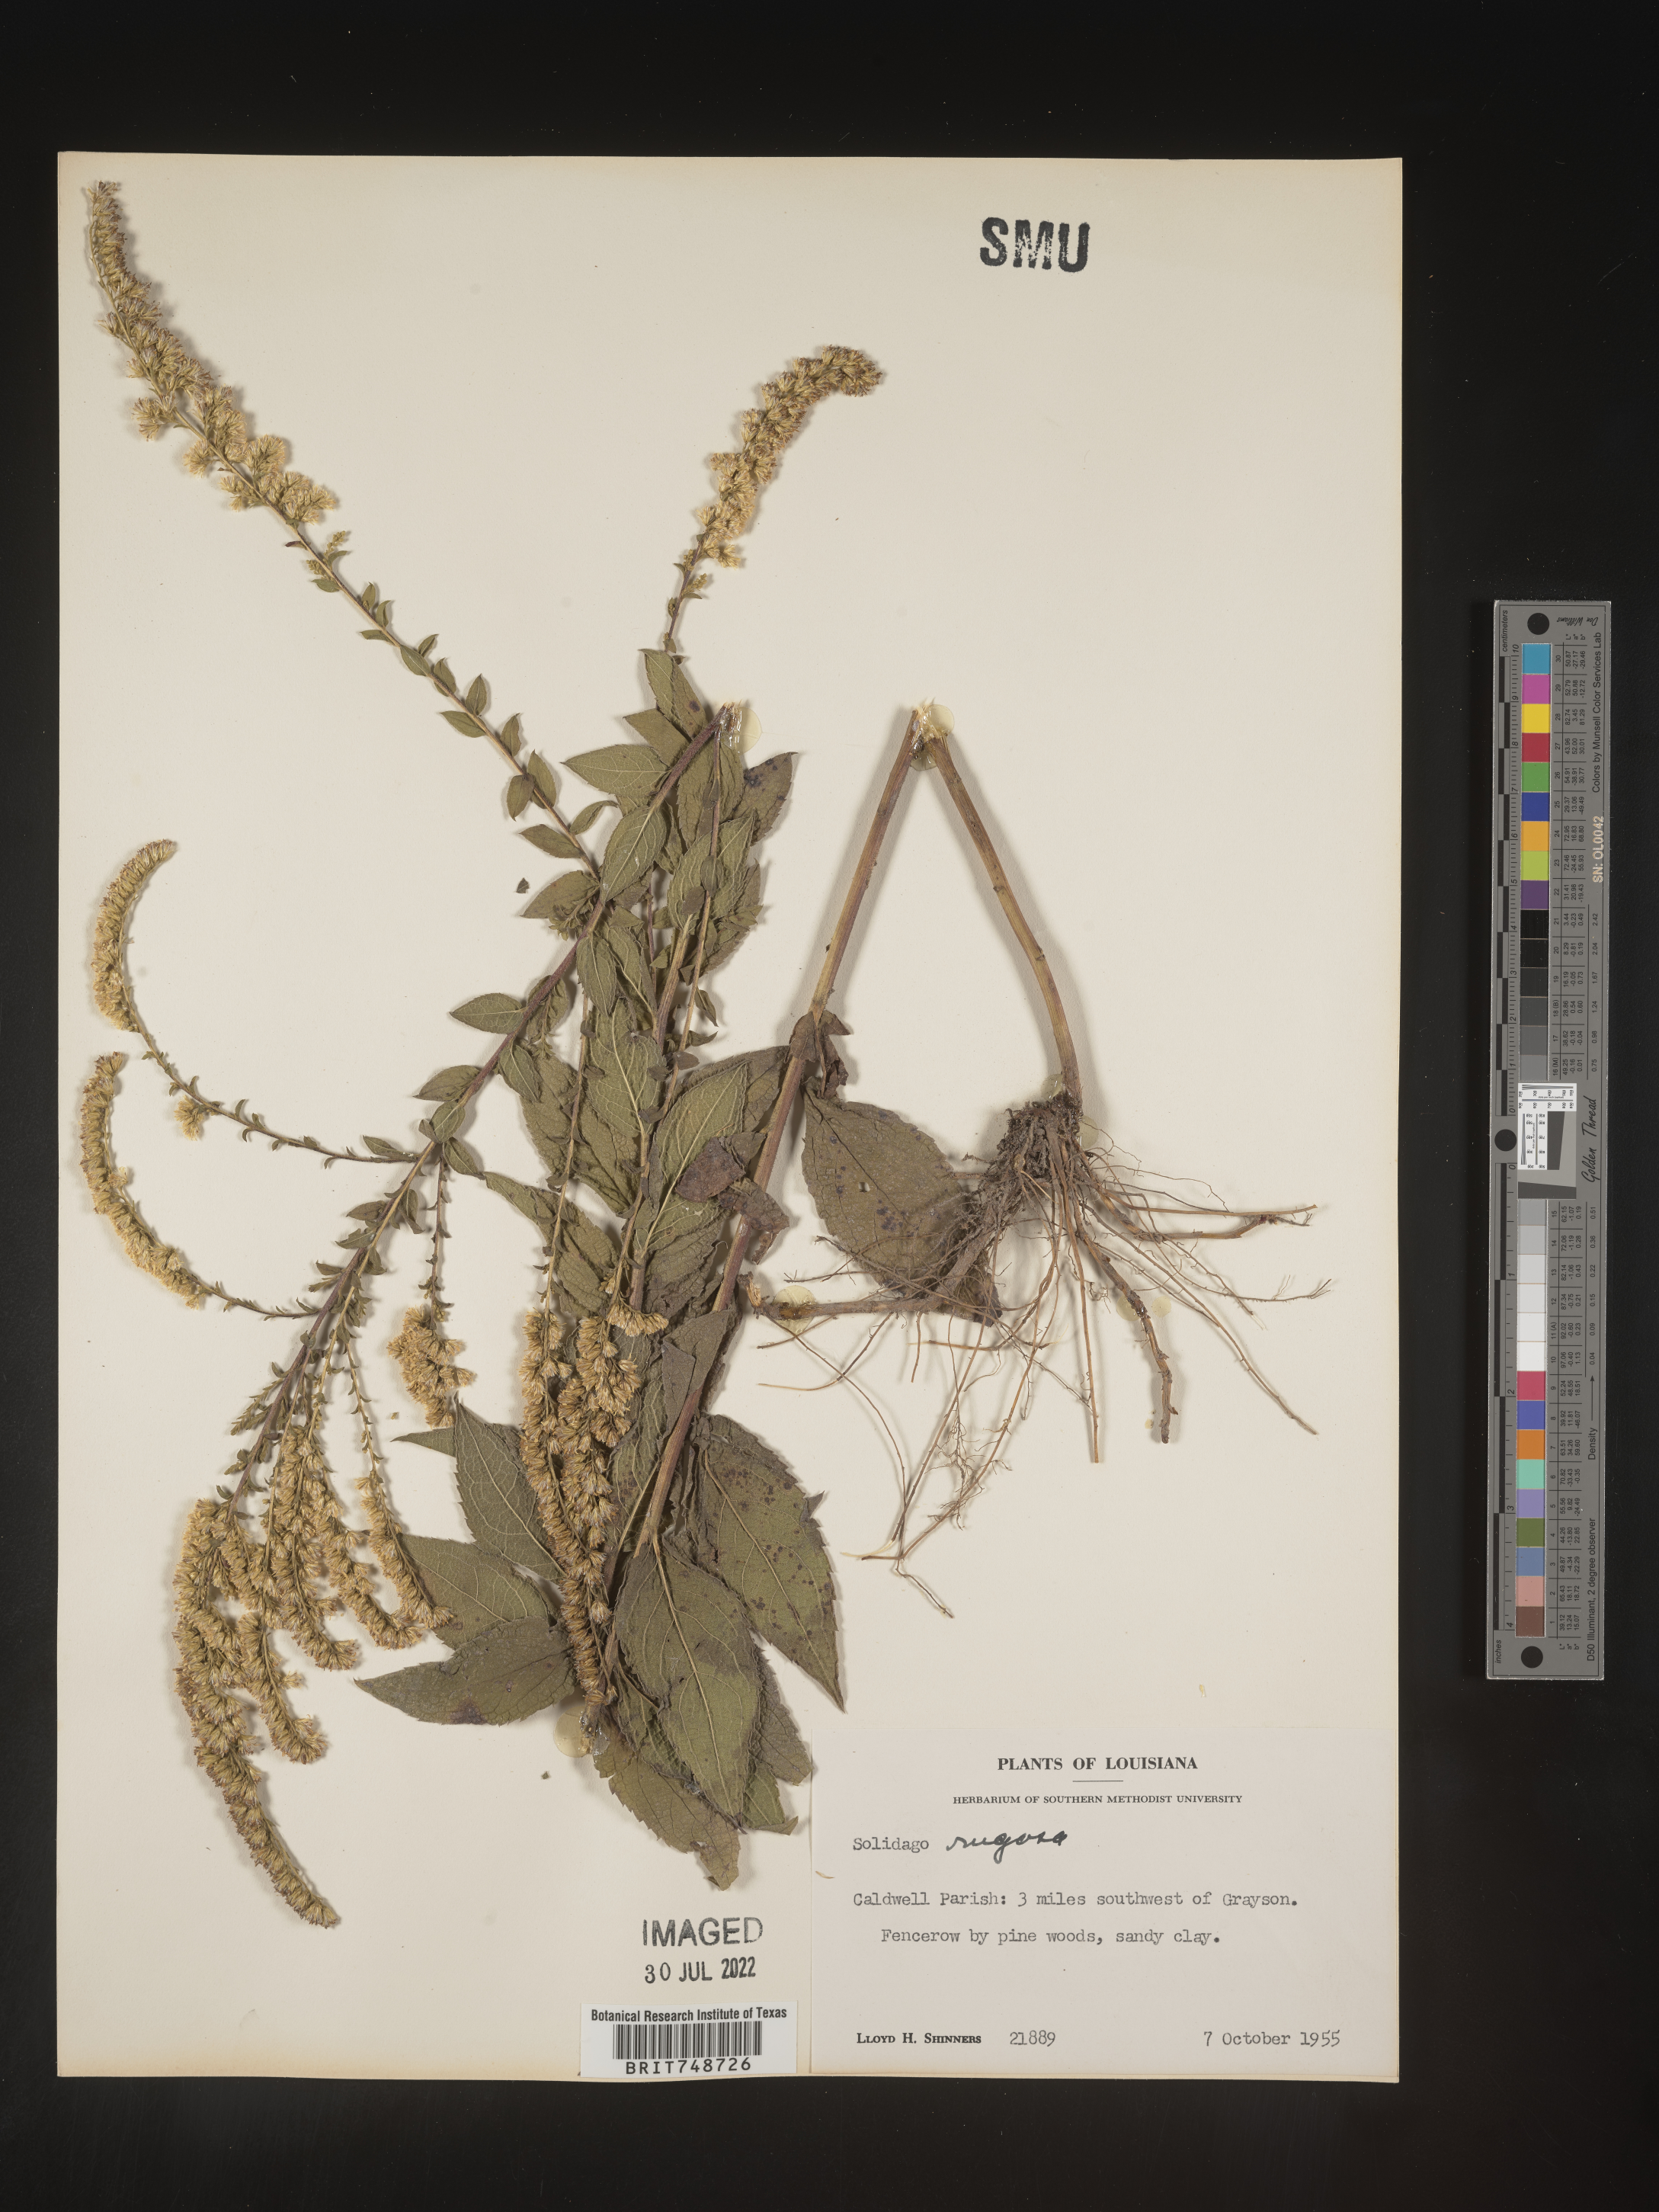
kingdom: Plantae
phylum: Tracheophyta
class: Magnoliopsida
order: Asterales
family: Asteraceae
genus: Solidago
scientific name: Solidago rugosa
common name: Rough-stemmed goldenrod
